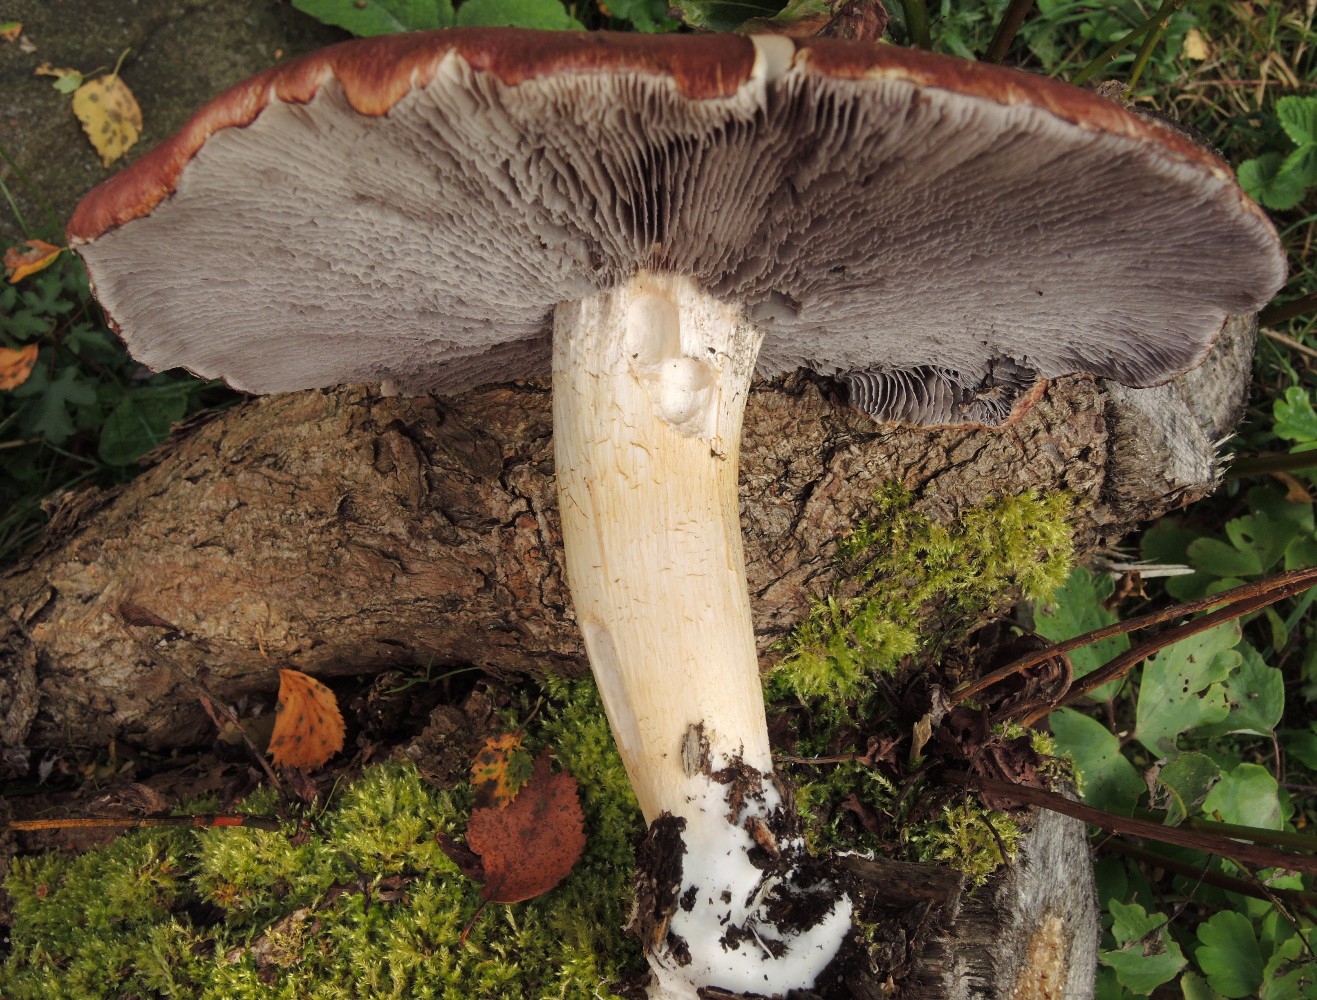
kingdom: Fungi
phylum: Basidiomycota
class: Agaricomycetes
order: Agaricales
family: Strophariaceae
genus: Stropharia
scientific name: Stropharia rugosoannulata
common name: rødbrun bredblad
